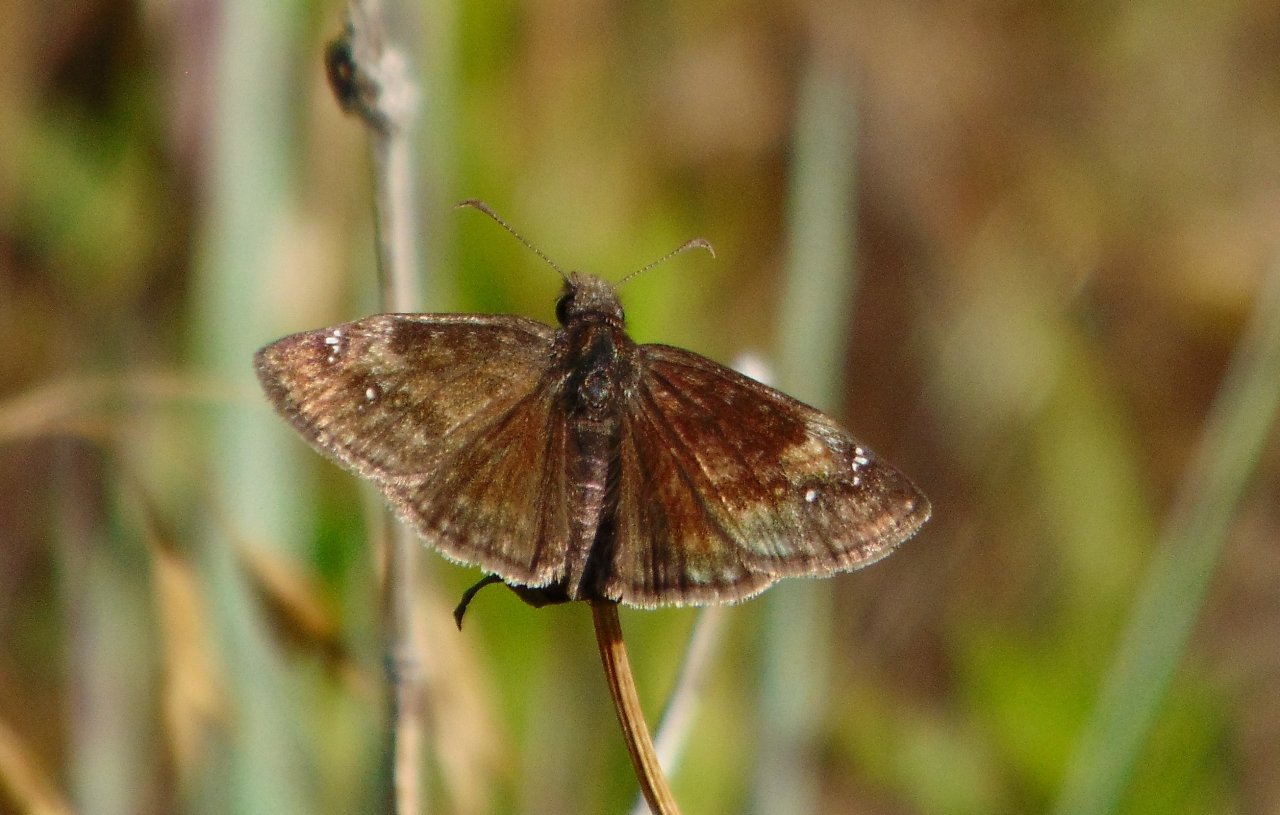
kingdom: Animalia
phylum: Arthropoda
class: Insecta
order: Lepidoptera
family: Hesperiidae
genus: Gesta
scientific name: Gesta
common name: Wild Indigo Duskywing
